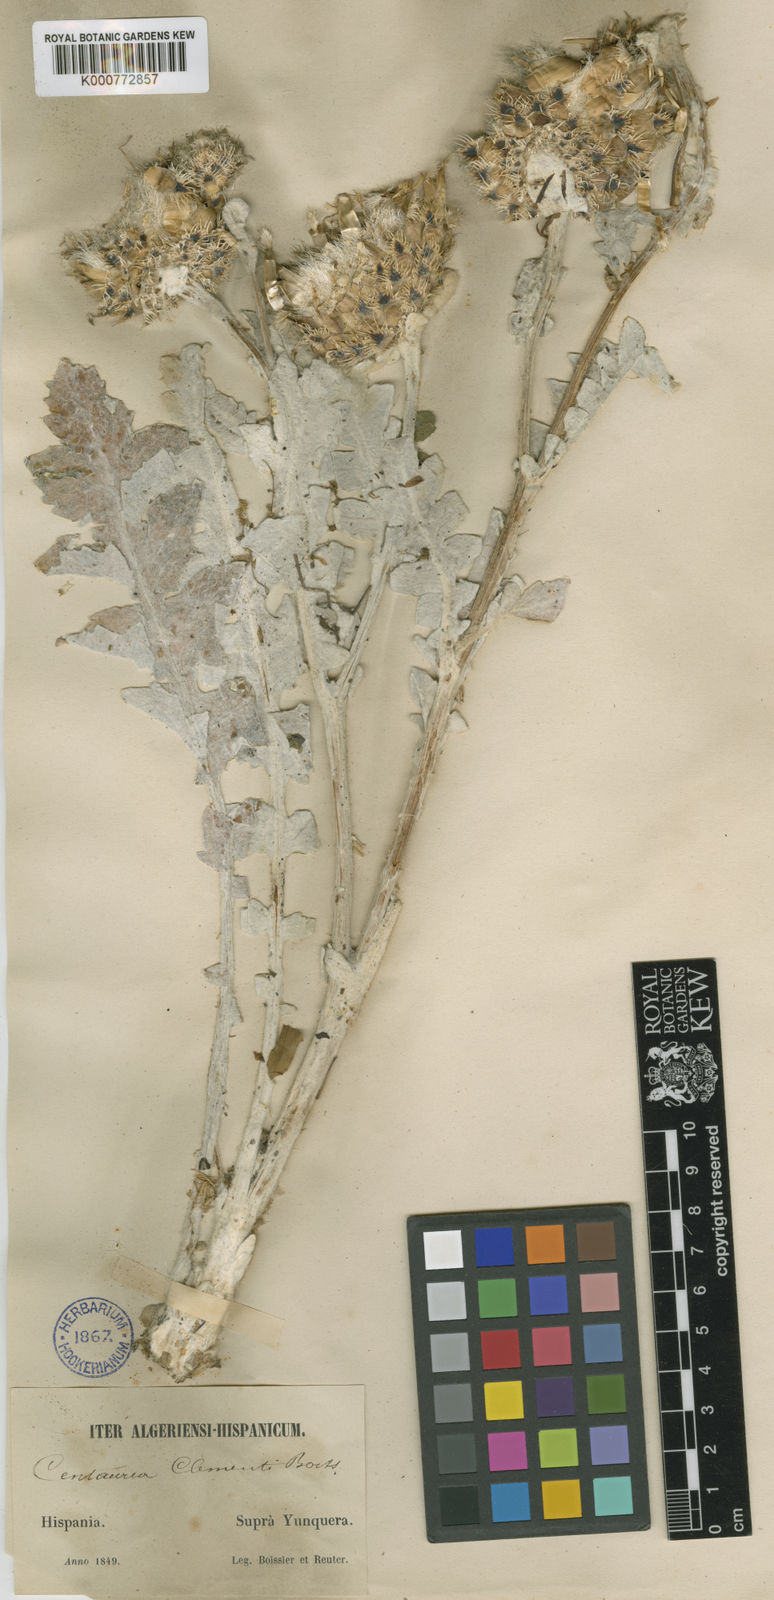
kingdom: Plantae
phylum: Tracheophyta
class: Magnoliopsida
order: Asterales
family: Asteraceae
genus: Centaurea
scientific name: Centaurea clementei
